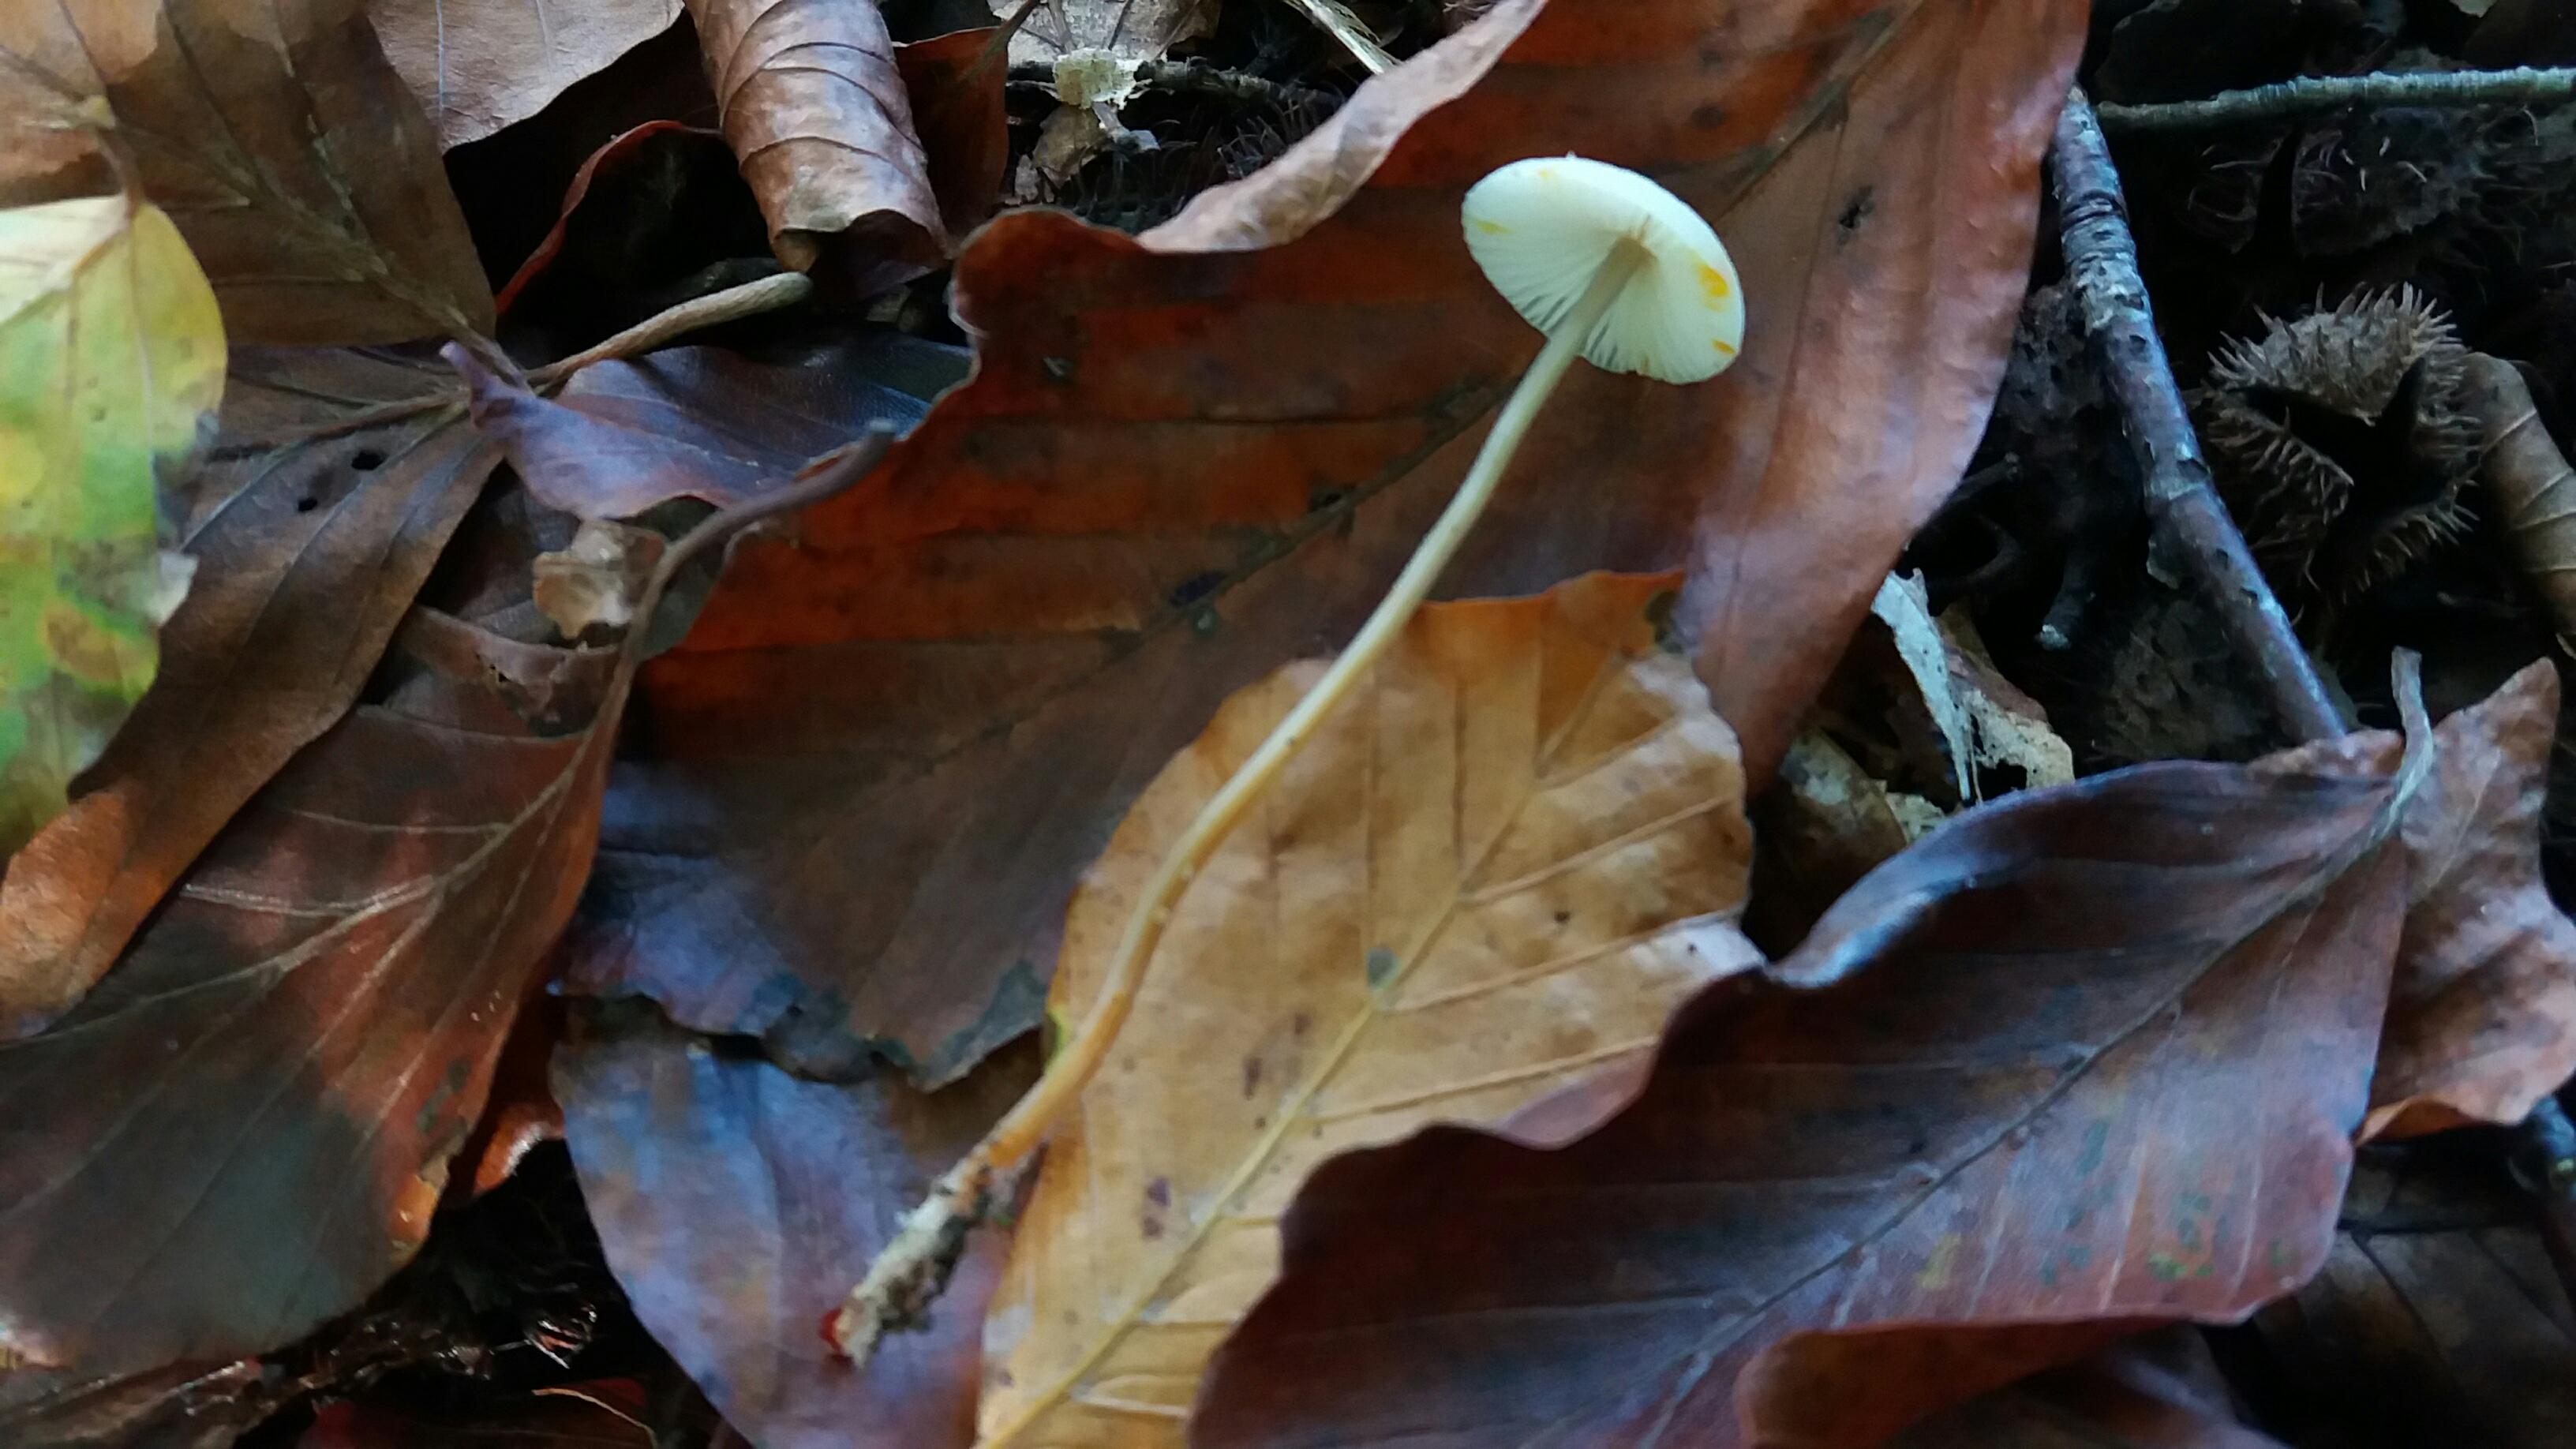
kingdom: Fungi
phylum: Basidiomycota
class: Agaricomycetes
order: Agaricales
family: Mycenaceae
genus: Mycena
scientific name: Mycena crocata
